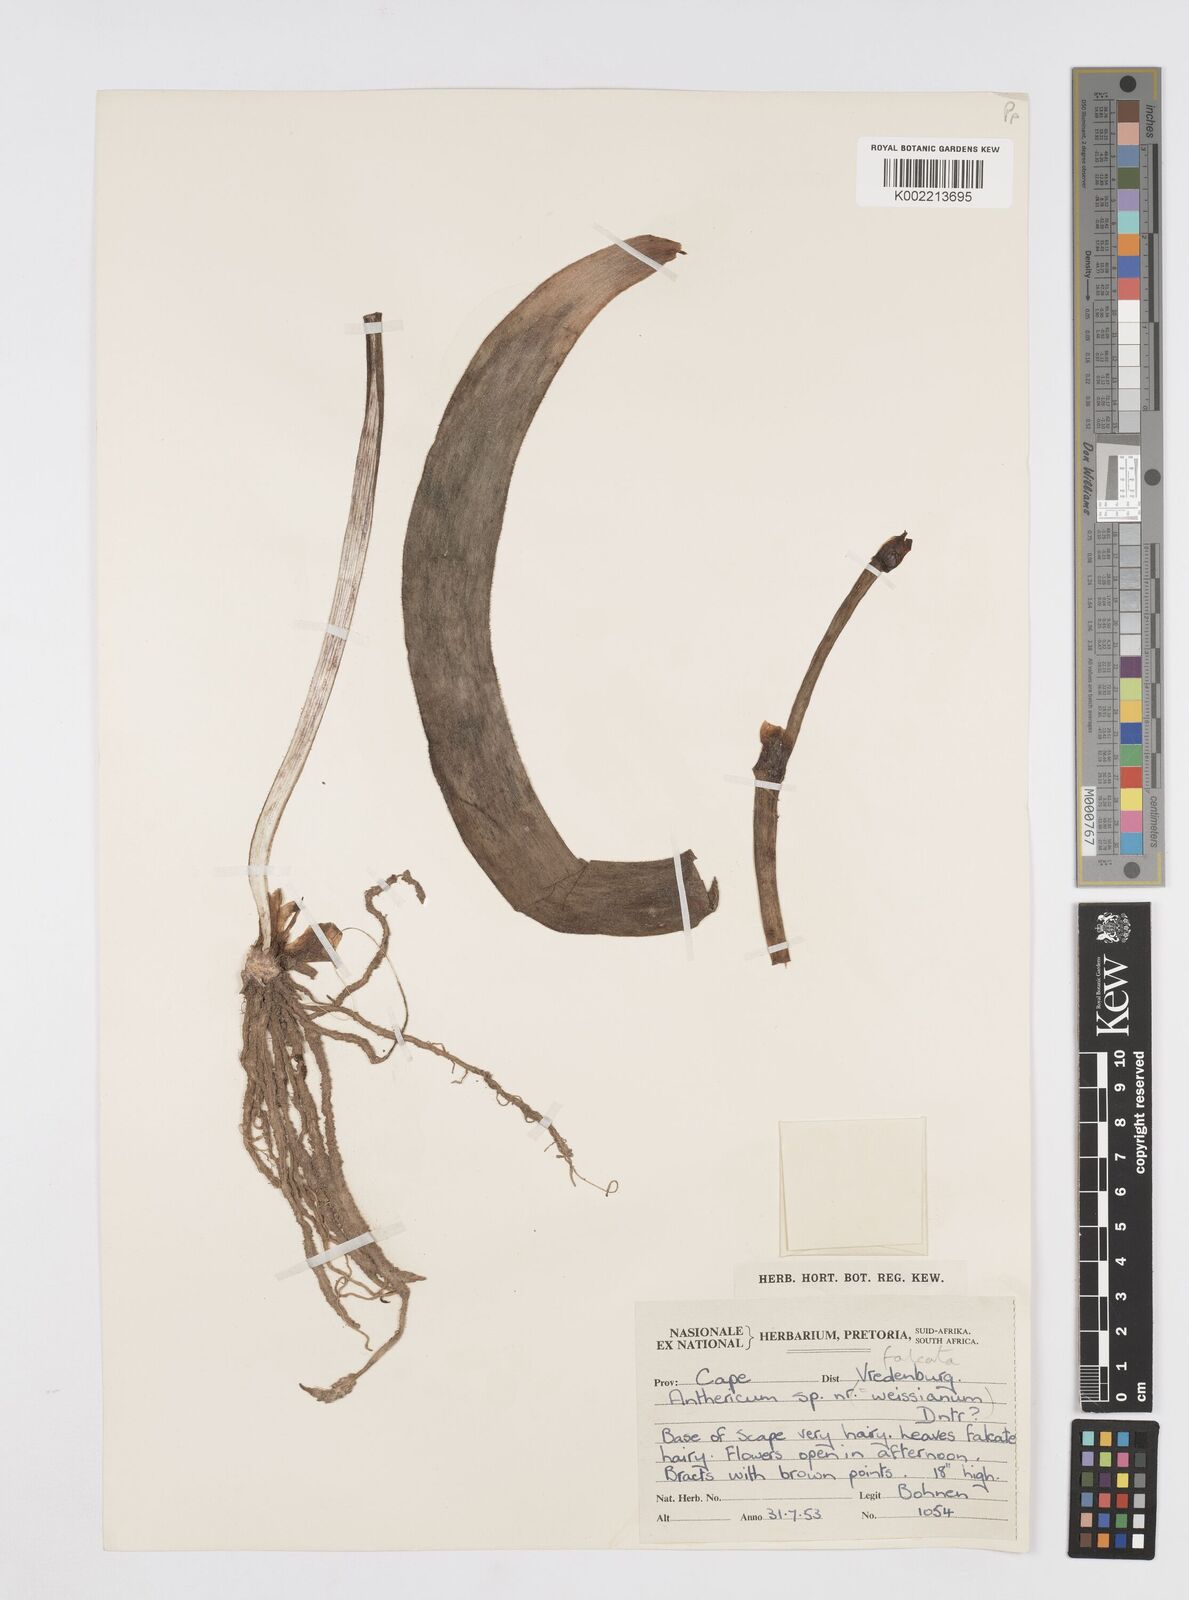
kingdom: Plantae
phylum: Tracheophyta
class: Liliopsida
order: Asparagales
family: Asphodelaceae
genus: Trachyandra
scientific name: Trachyandra falcata
